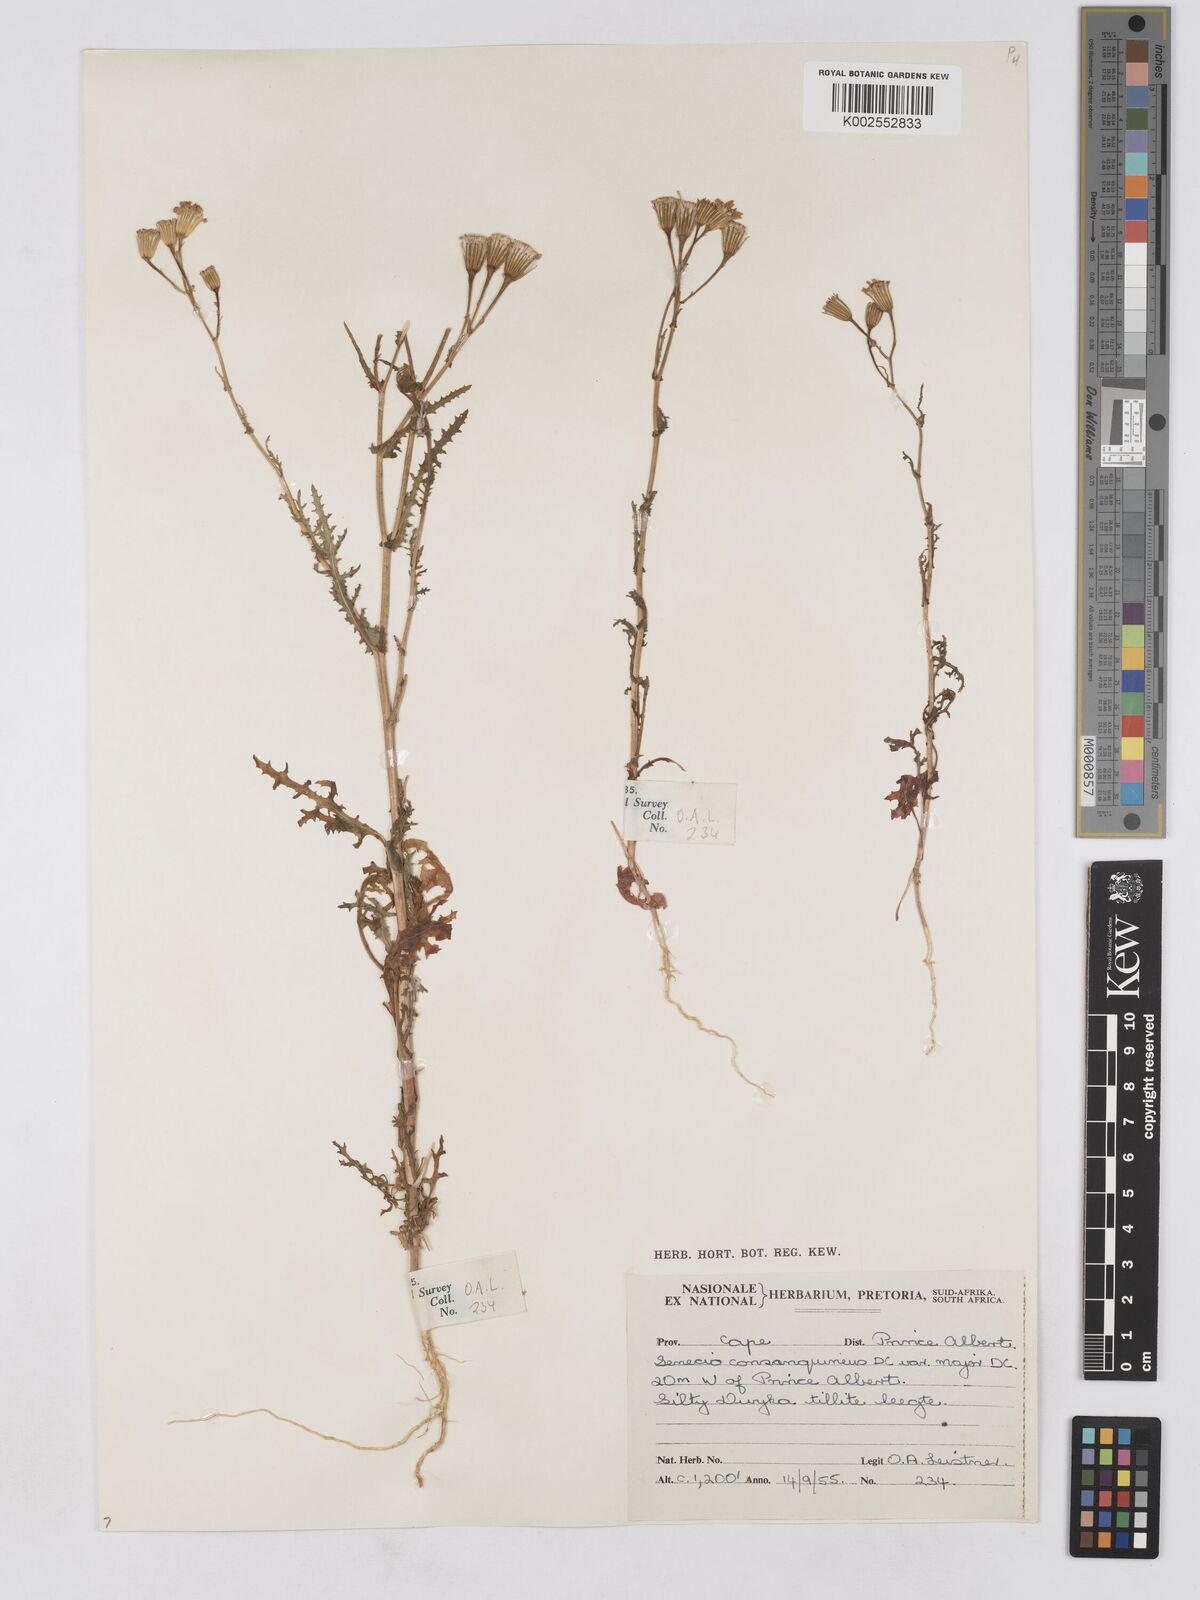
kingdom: Plantae
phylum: Tracheophyta
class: Magnoliopsida
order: Asterales
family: Asteraceae
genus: Senecio
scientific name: Senecio consanguineus
